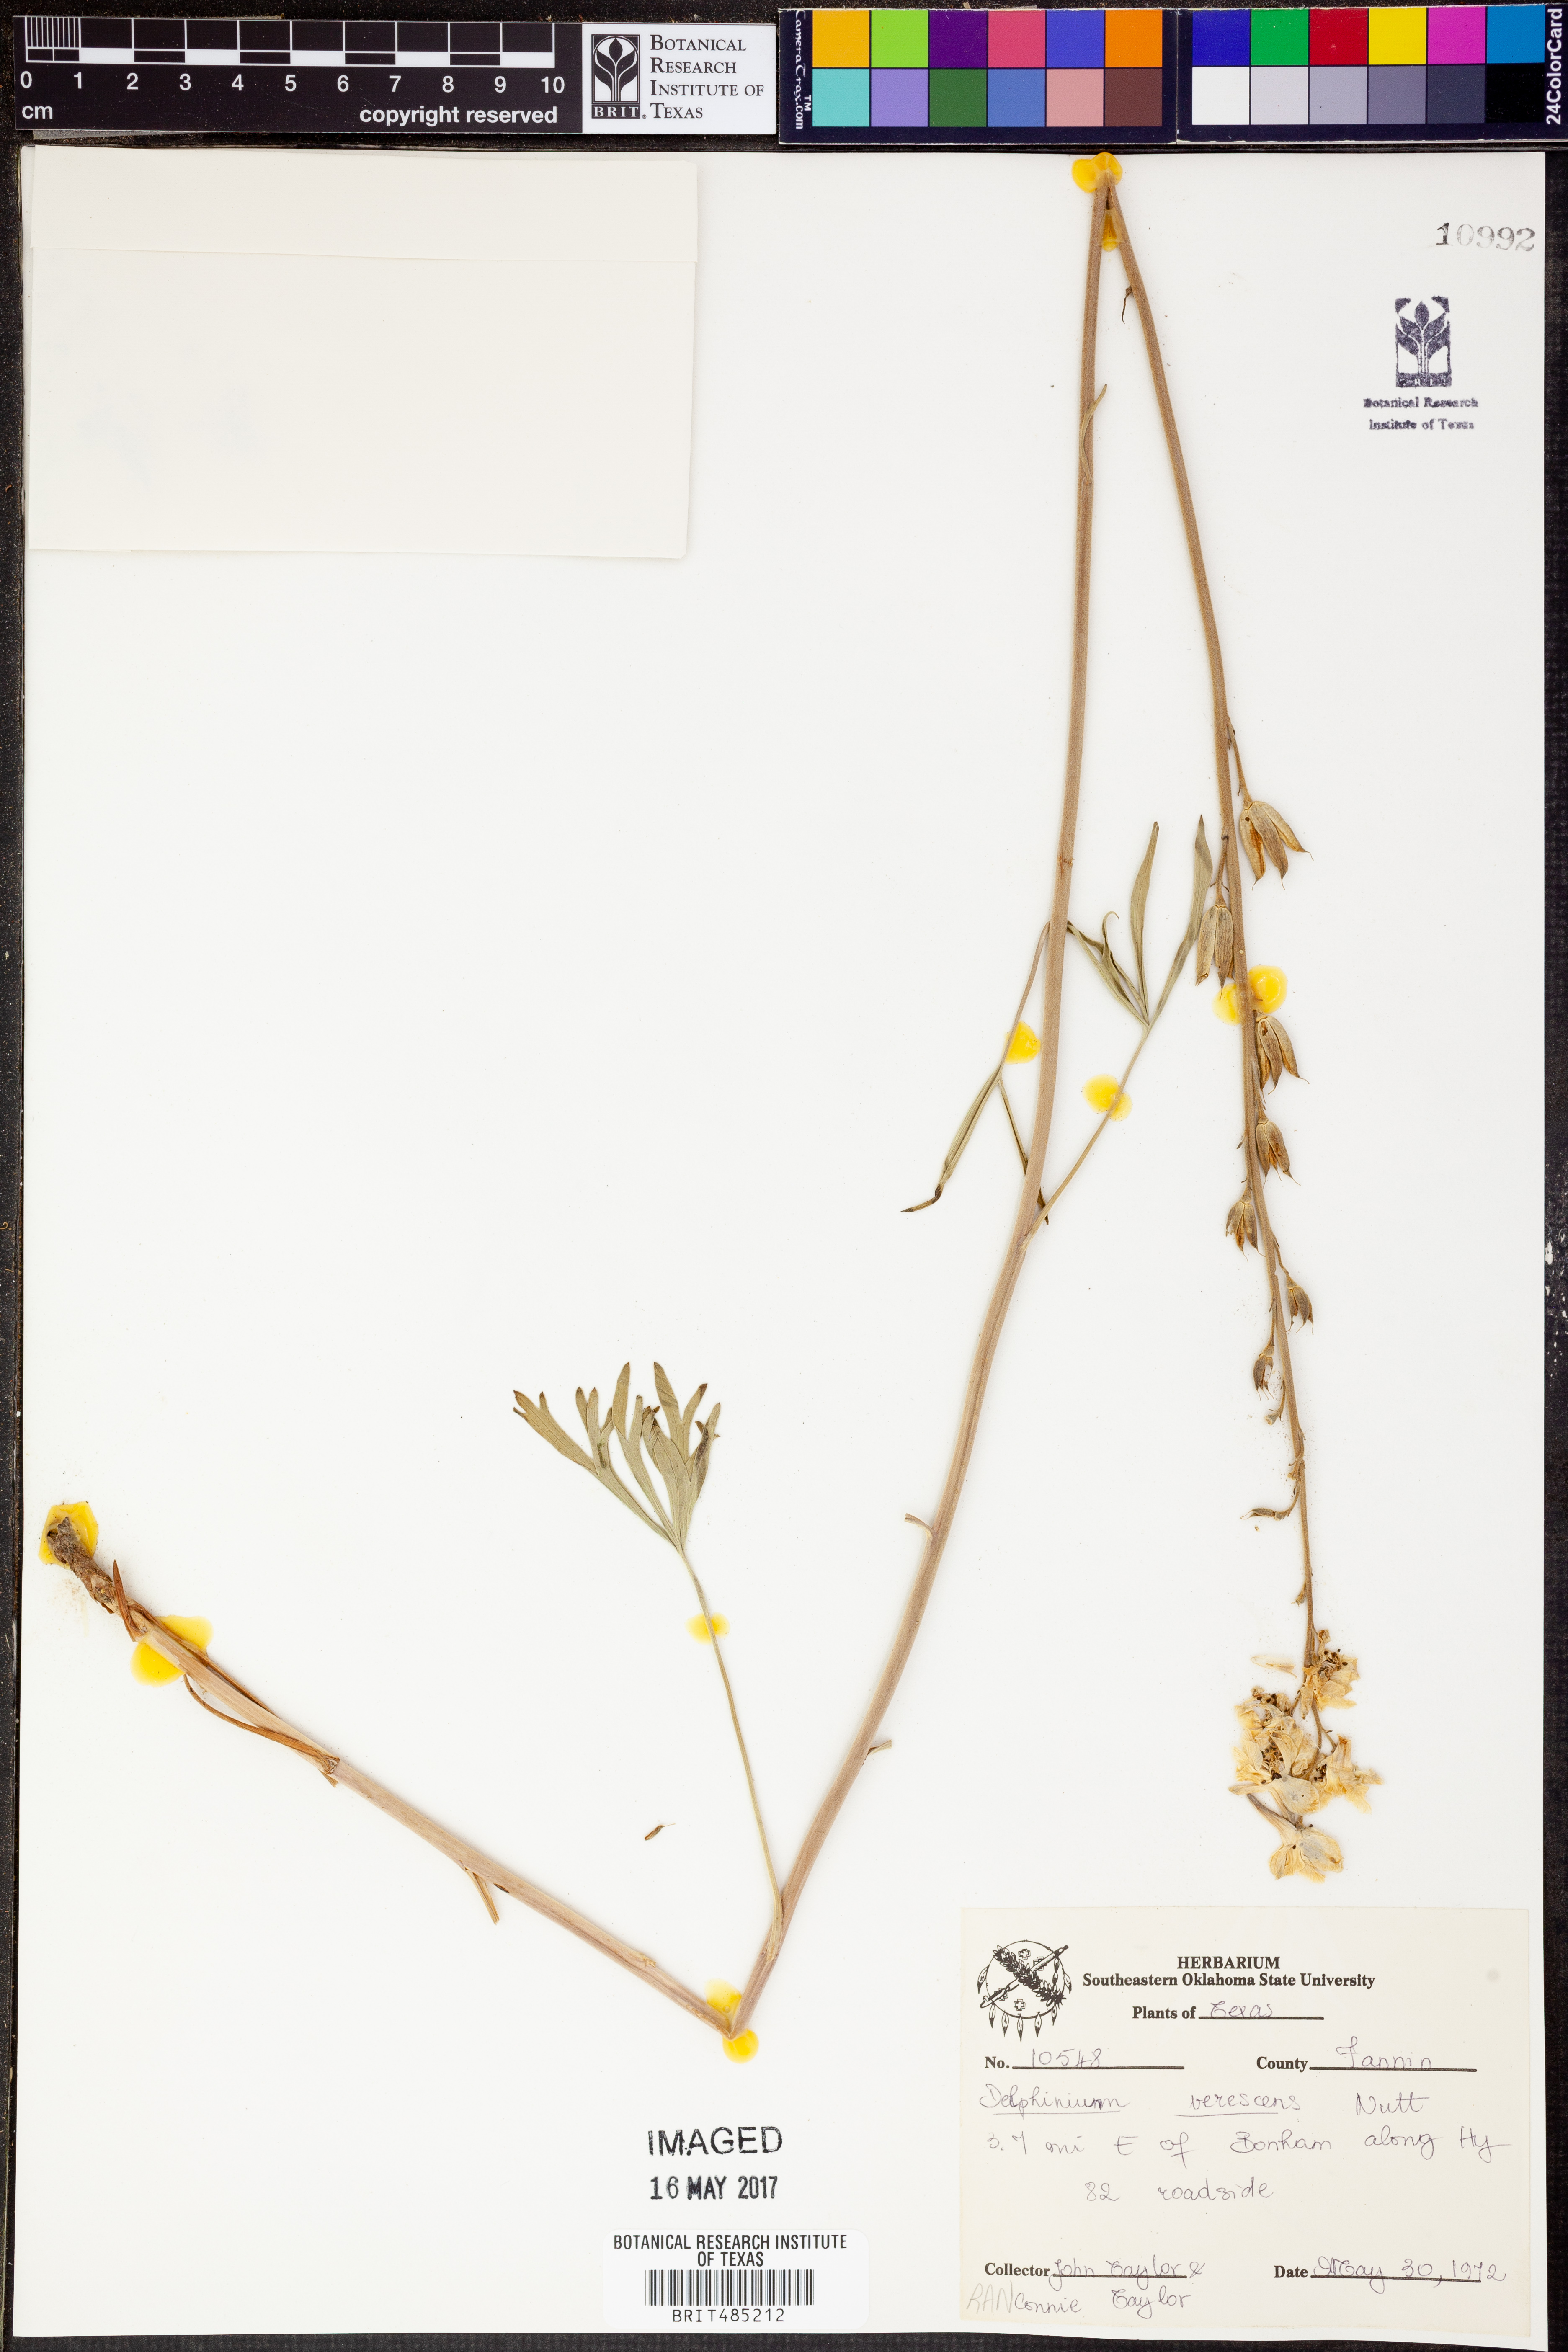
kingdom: Plantae
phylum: Tracheophyta
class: Magnoliopsida
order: Ranunculales
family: Ranunculaceae
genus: Delphinium
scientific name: Delphinium carolinianum
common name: Carolina larkspur
